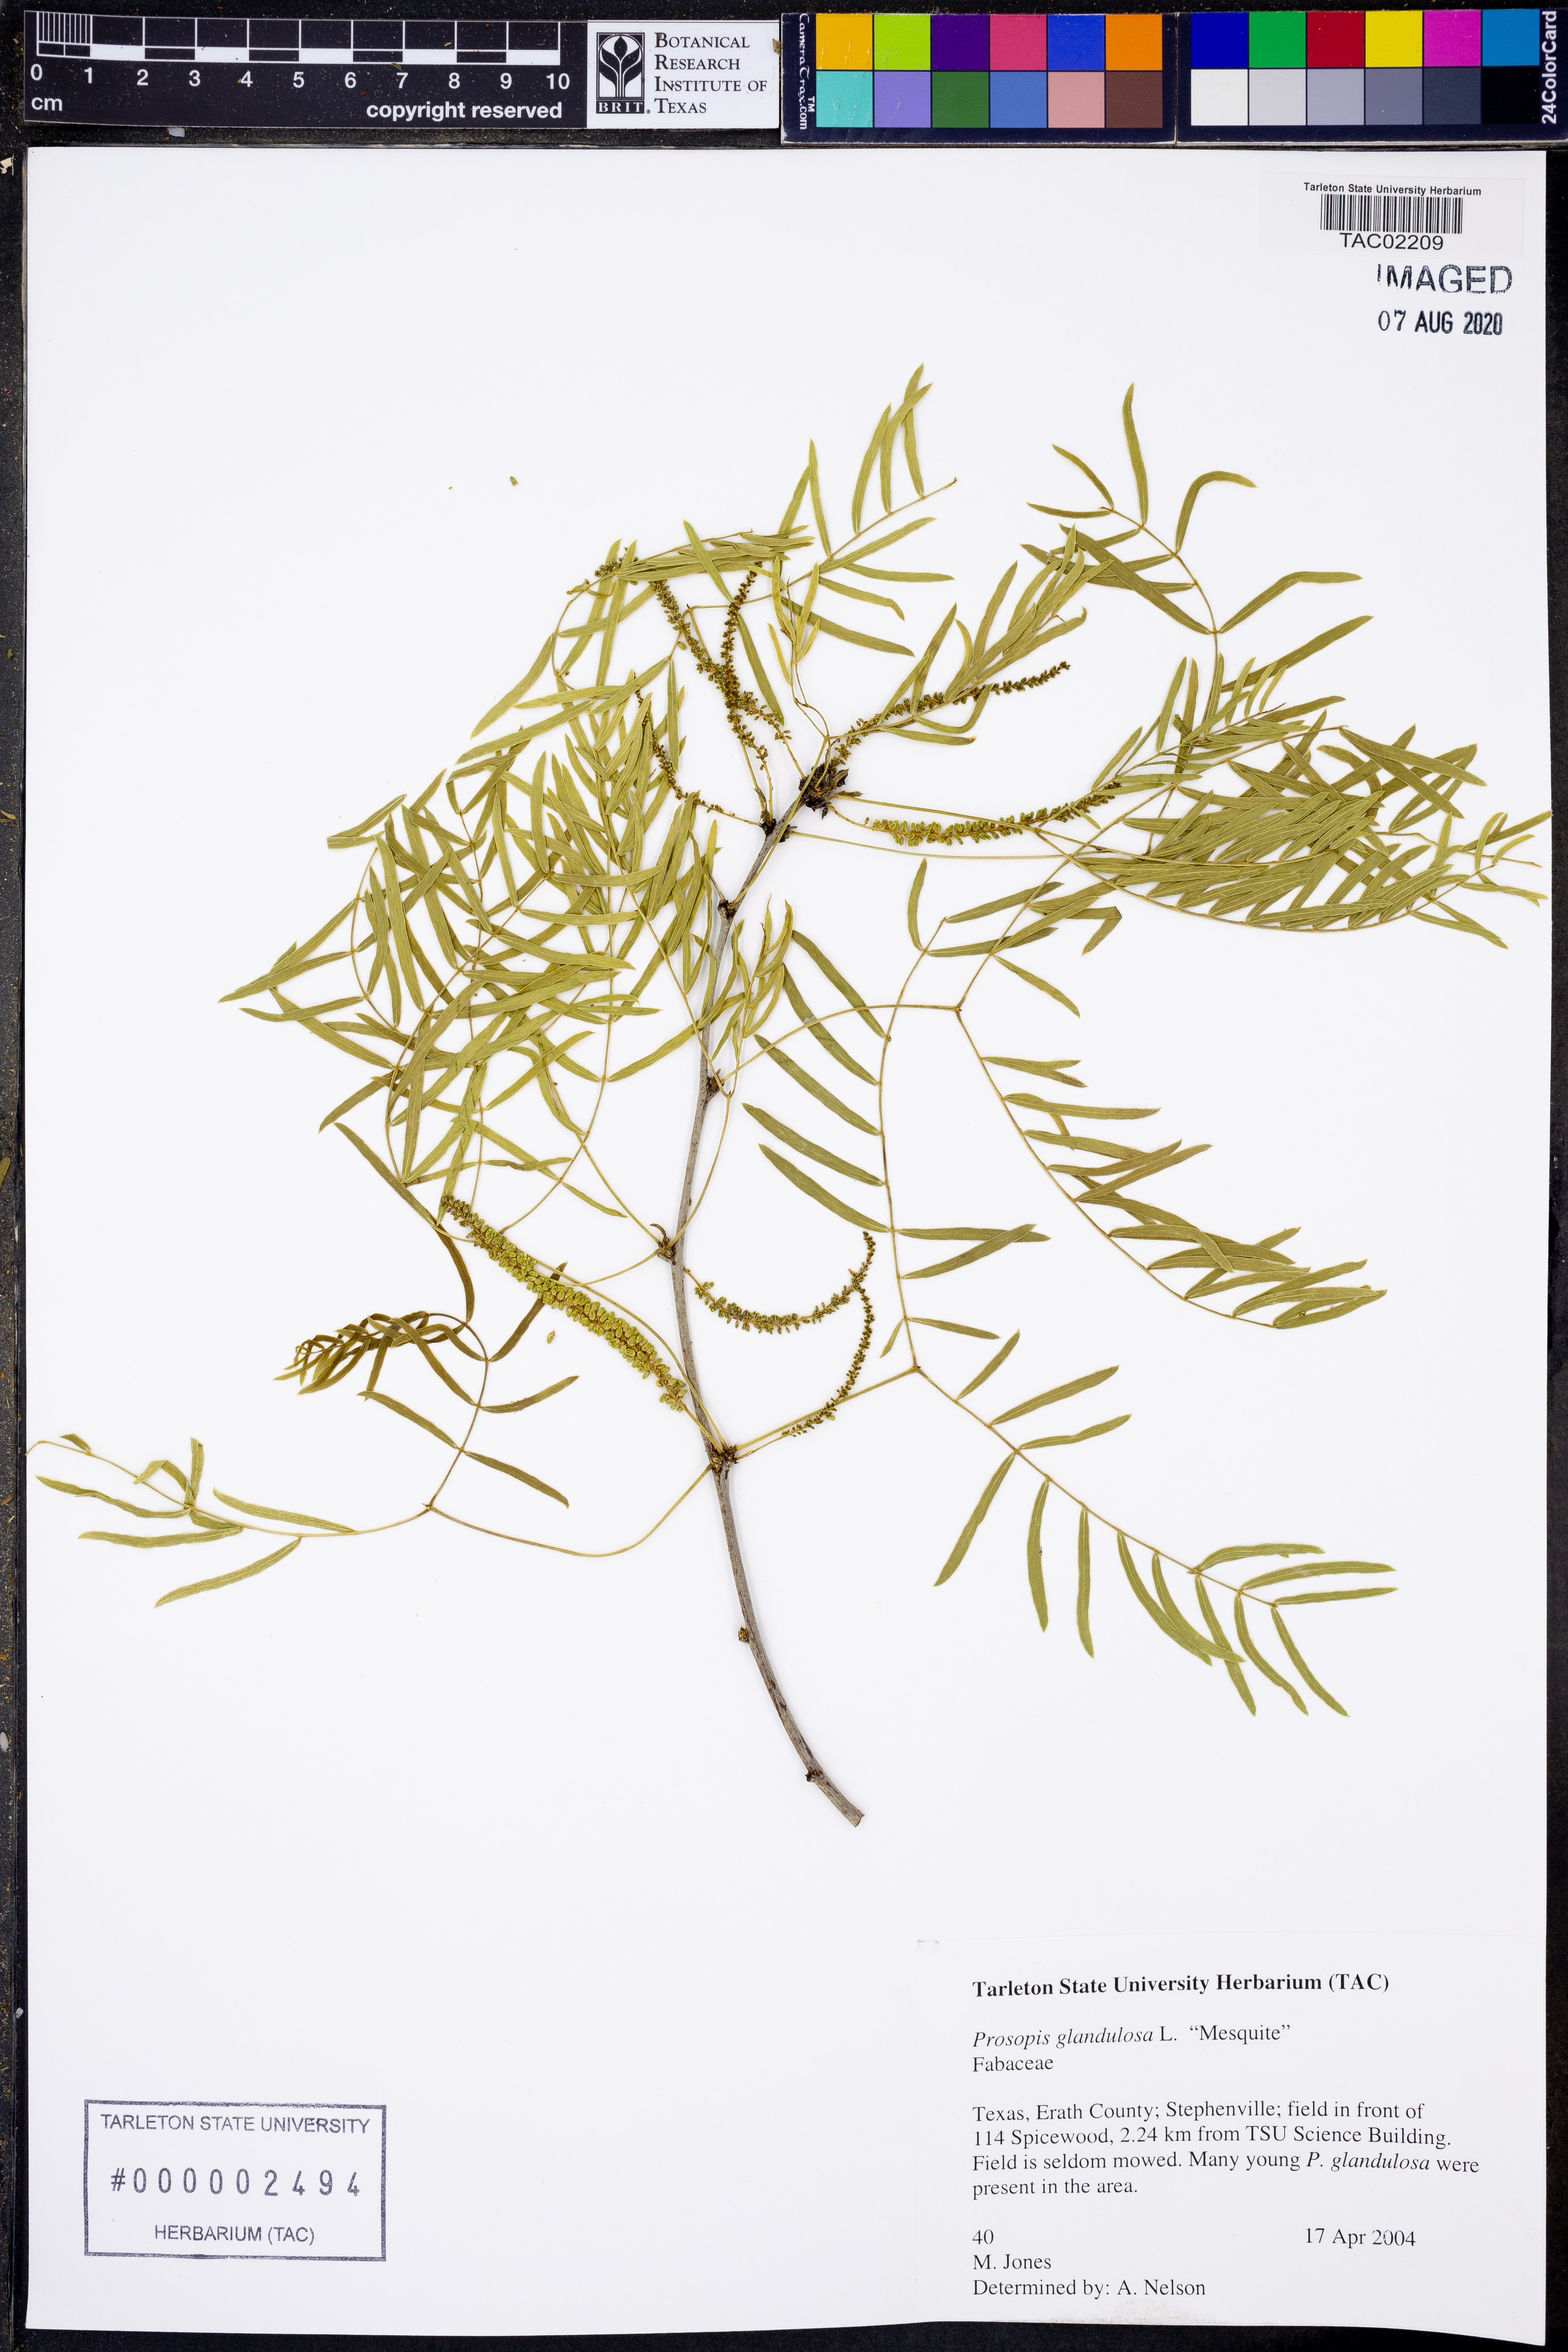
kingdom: Plantae
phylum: Tracheophyta
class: Magnoliopsida
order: Fabales
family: Fabaceae
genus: Prosopis
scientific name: Prosopis glandulosa
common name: Honey mesquite
